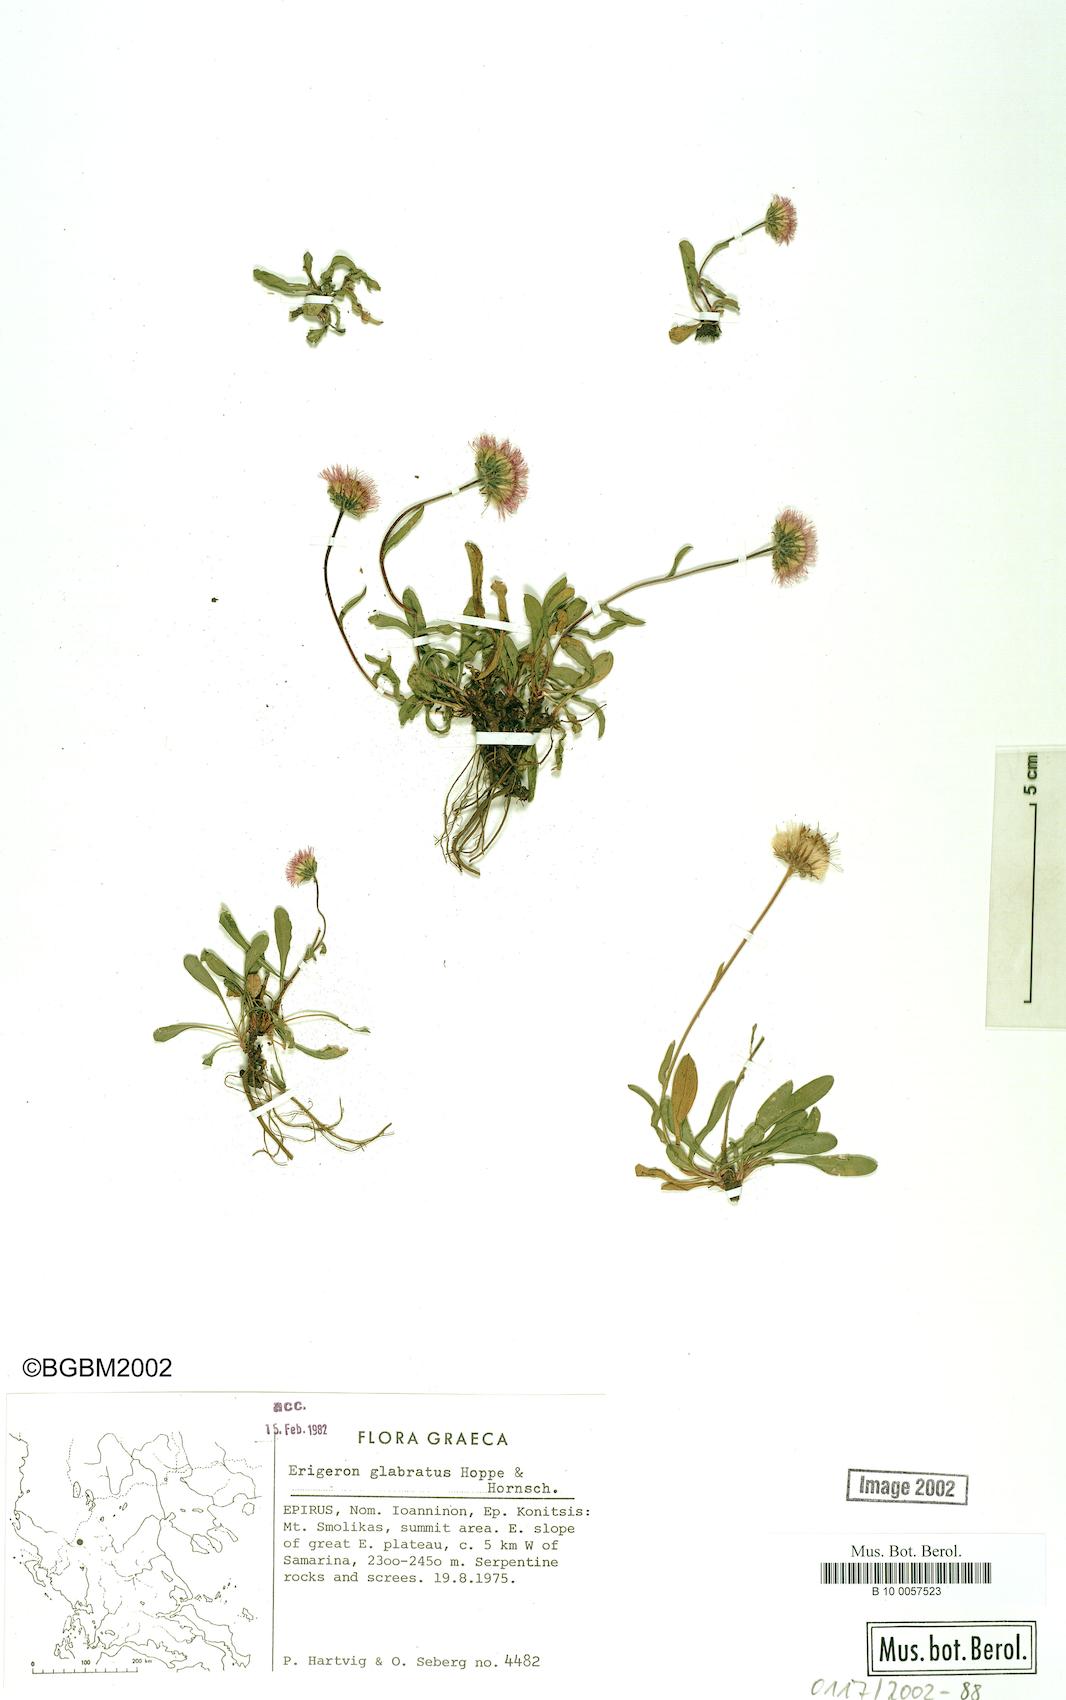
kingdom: Plantae
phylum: Tracheophyta
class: Magnoliopsida
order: Asterales
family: Asteraceae
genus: Erigeron
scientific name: Erigeron glabratus
